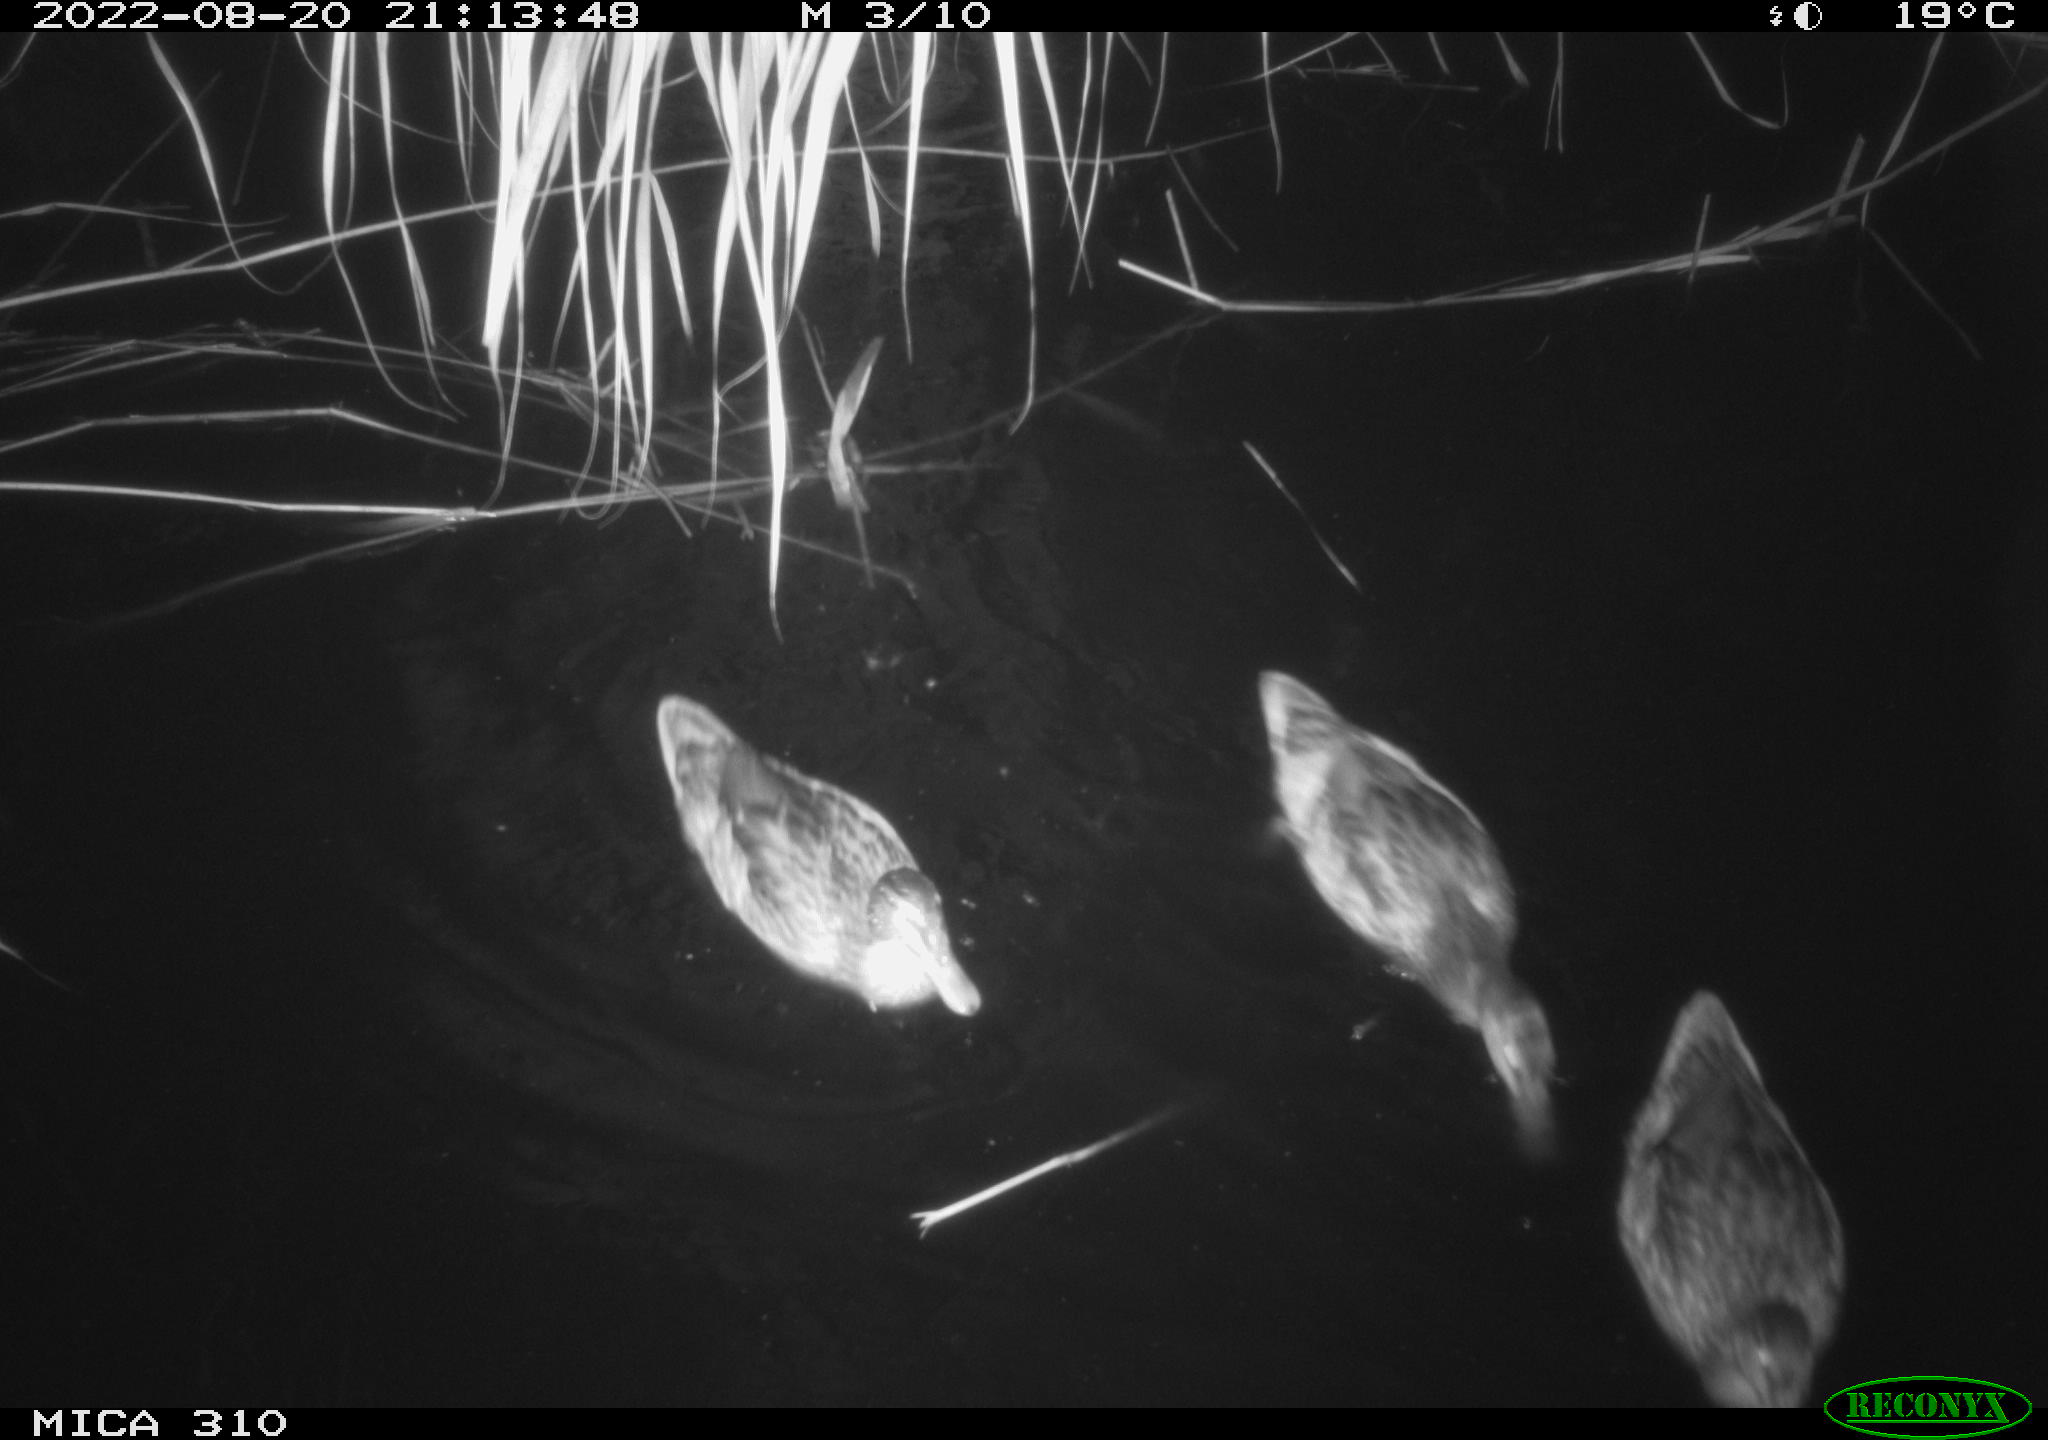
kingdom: Animalia
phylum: Chordata
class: Aves
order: Anseriformes
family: Anatidae
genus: Anas
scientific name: Anas platyrhynchos
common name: Mallard
